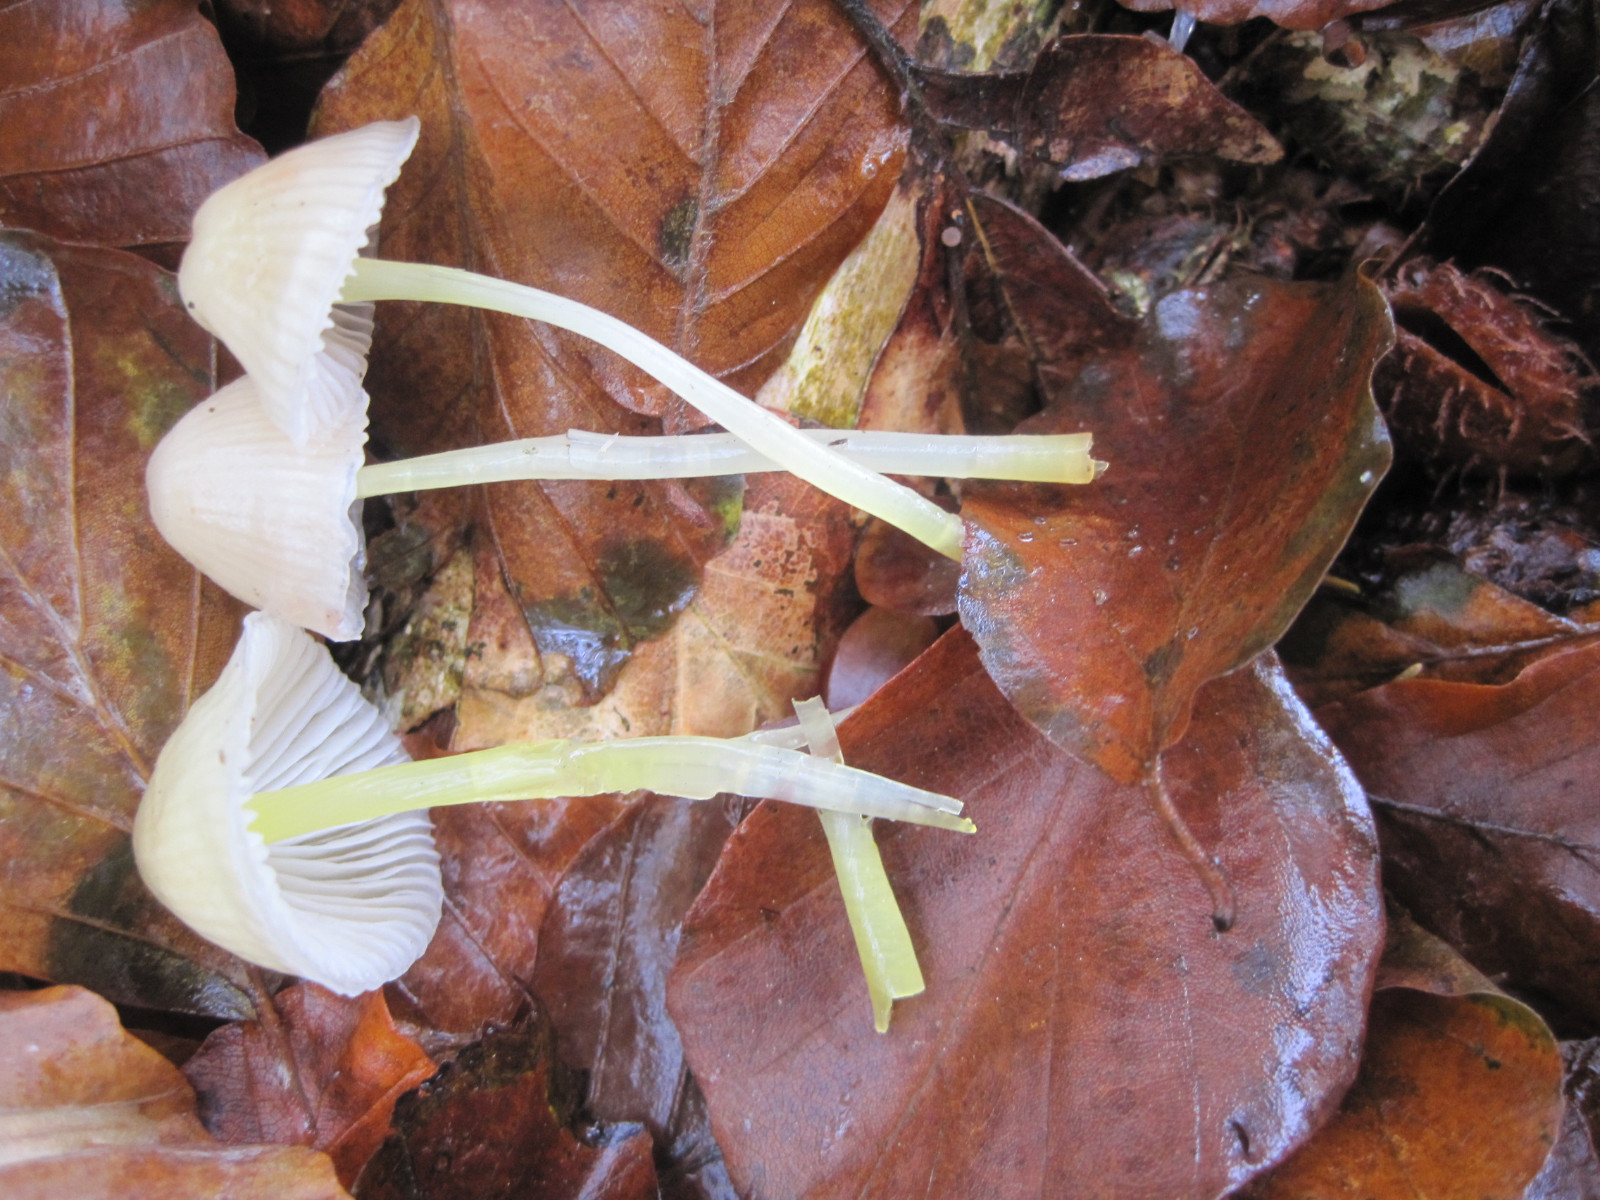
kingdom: Fungi
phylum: Basidiomycota
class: Agaricomycetes
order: Agaricales
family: Mycenaceae
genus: Mycena
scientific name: Mycena epipterygia
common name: gulstokket huesvamp
